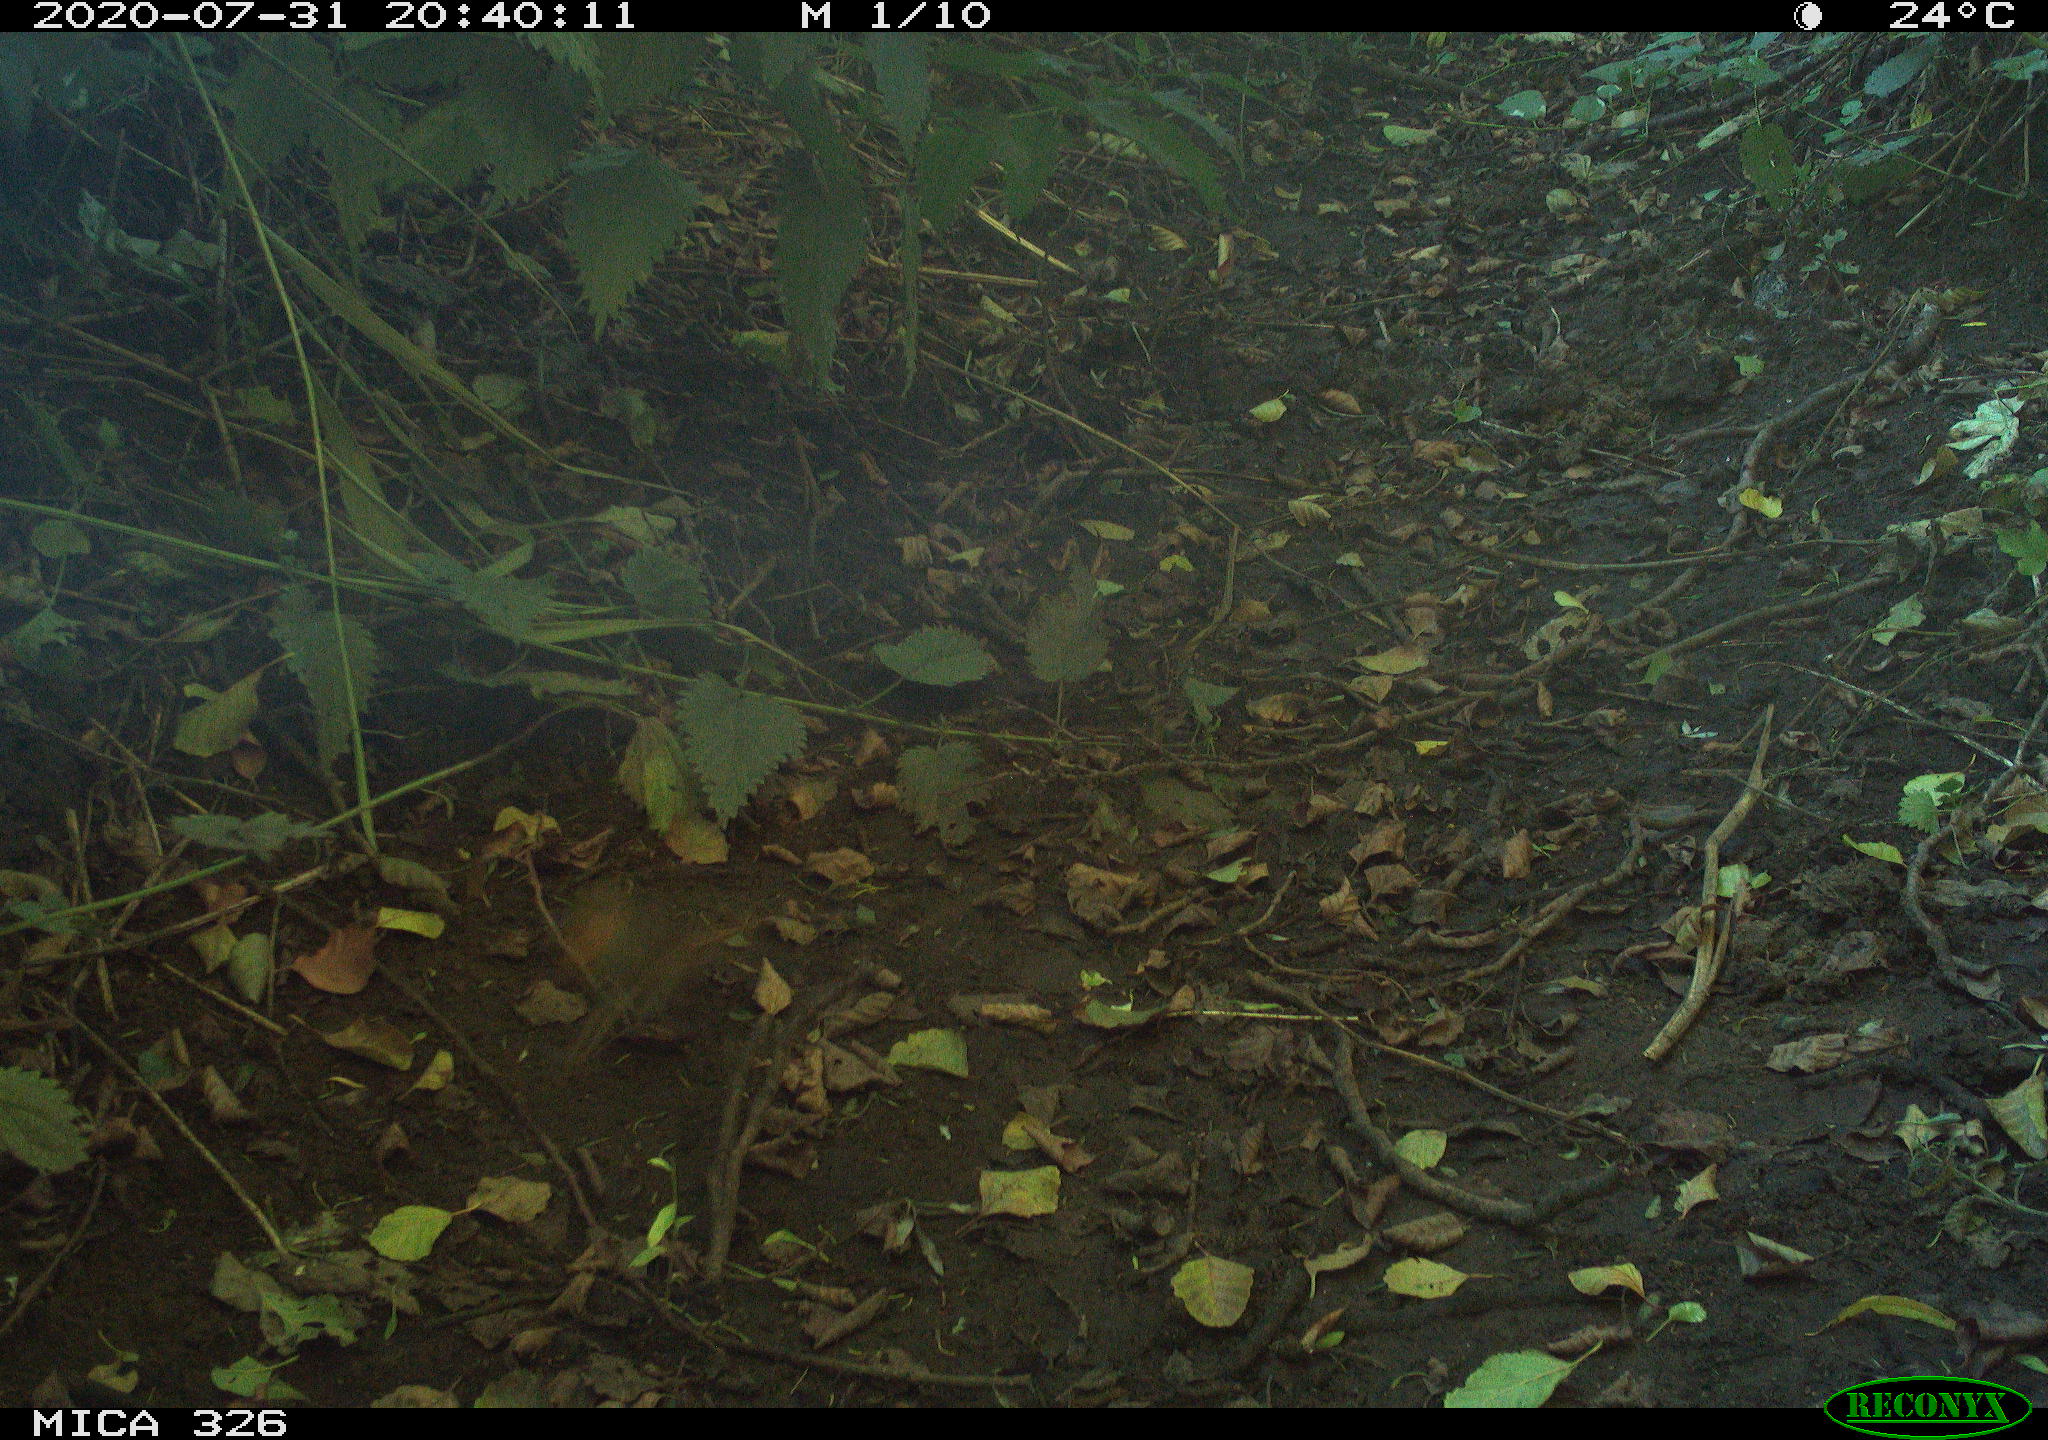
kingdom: Animalia
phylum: Chordata
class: Aves
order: Passeriformes
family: Muscicapidae
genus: Erithacus
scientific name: Erithacus rubecula
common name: European robin
